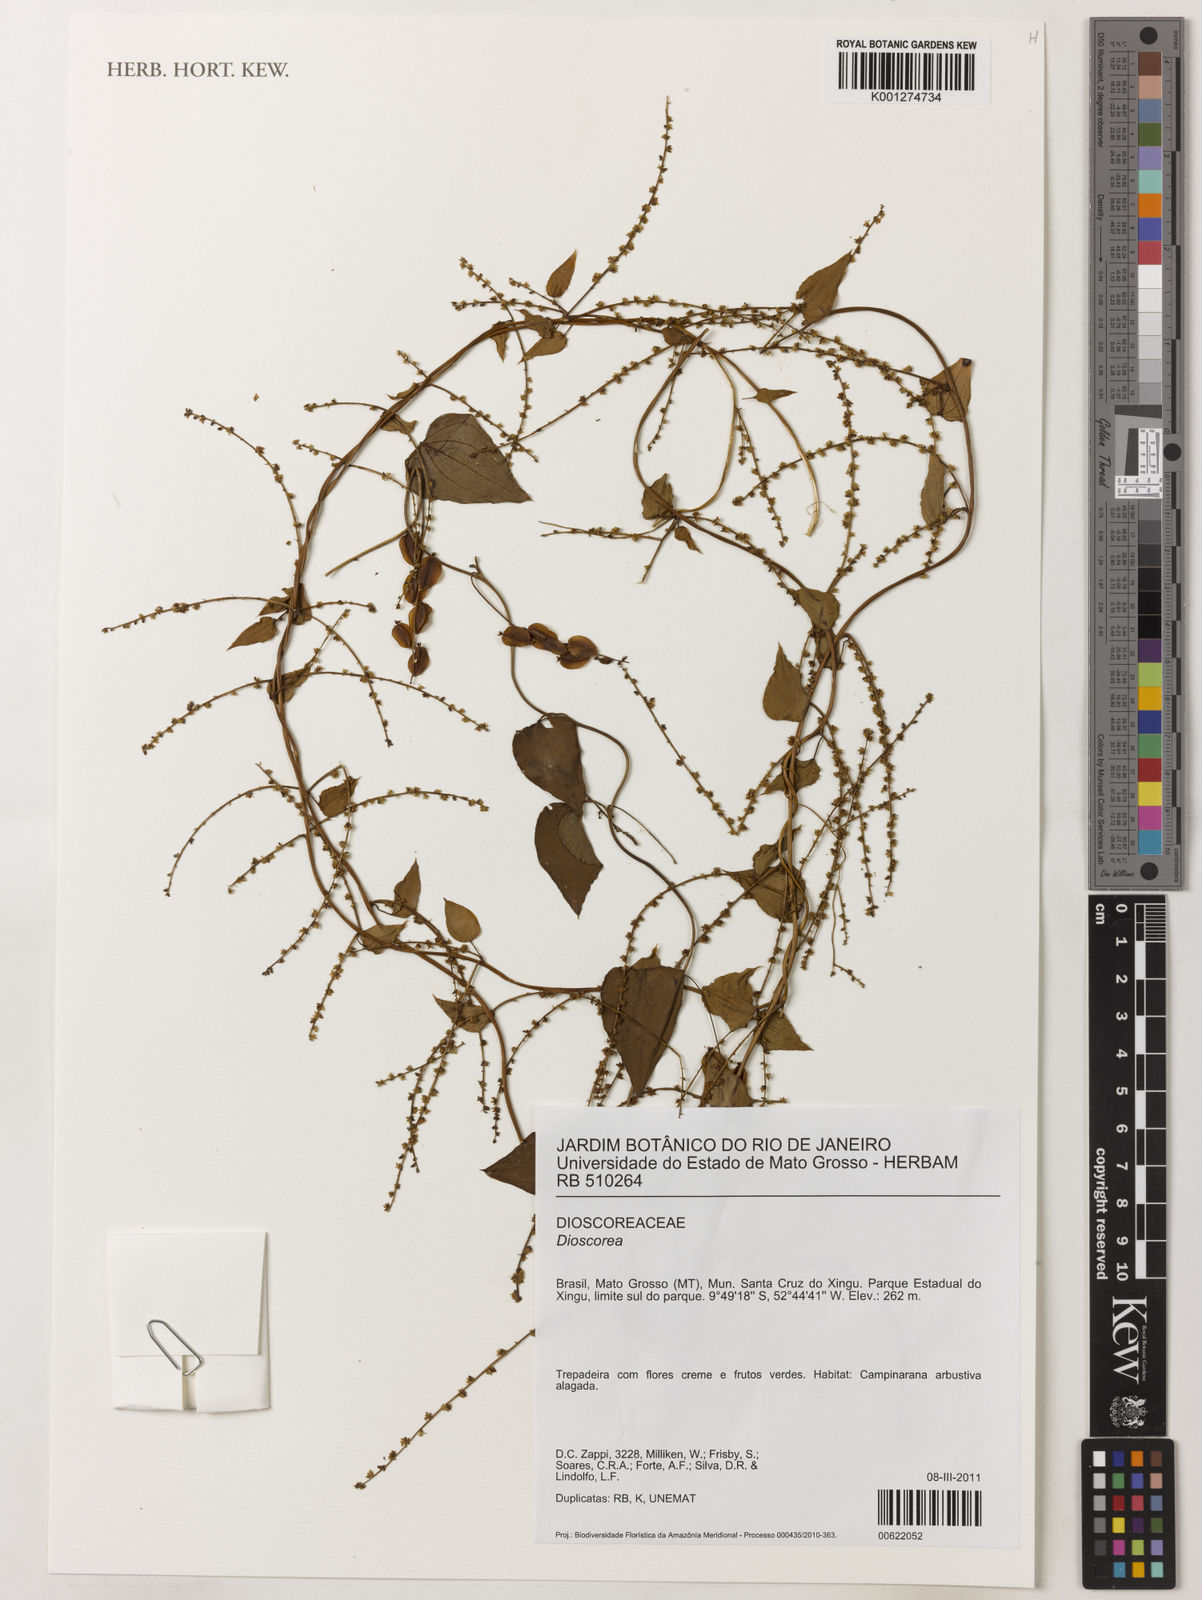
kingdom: Plantae
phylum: Tracheophyta
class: Liliopsida
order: Dioscoreales
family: Dioscoreaceae
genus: Dioscorea
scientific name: Dioscorea polygonoides
